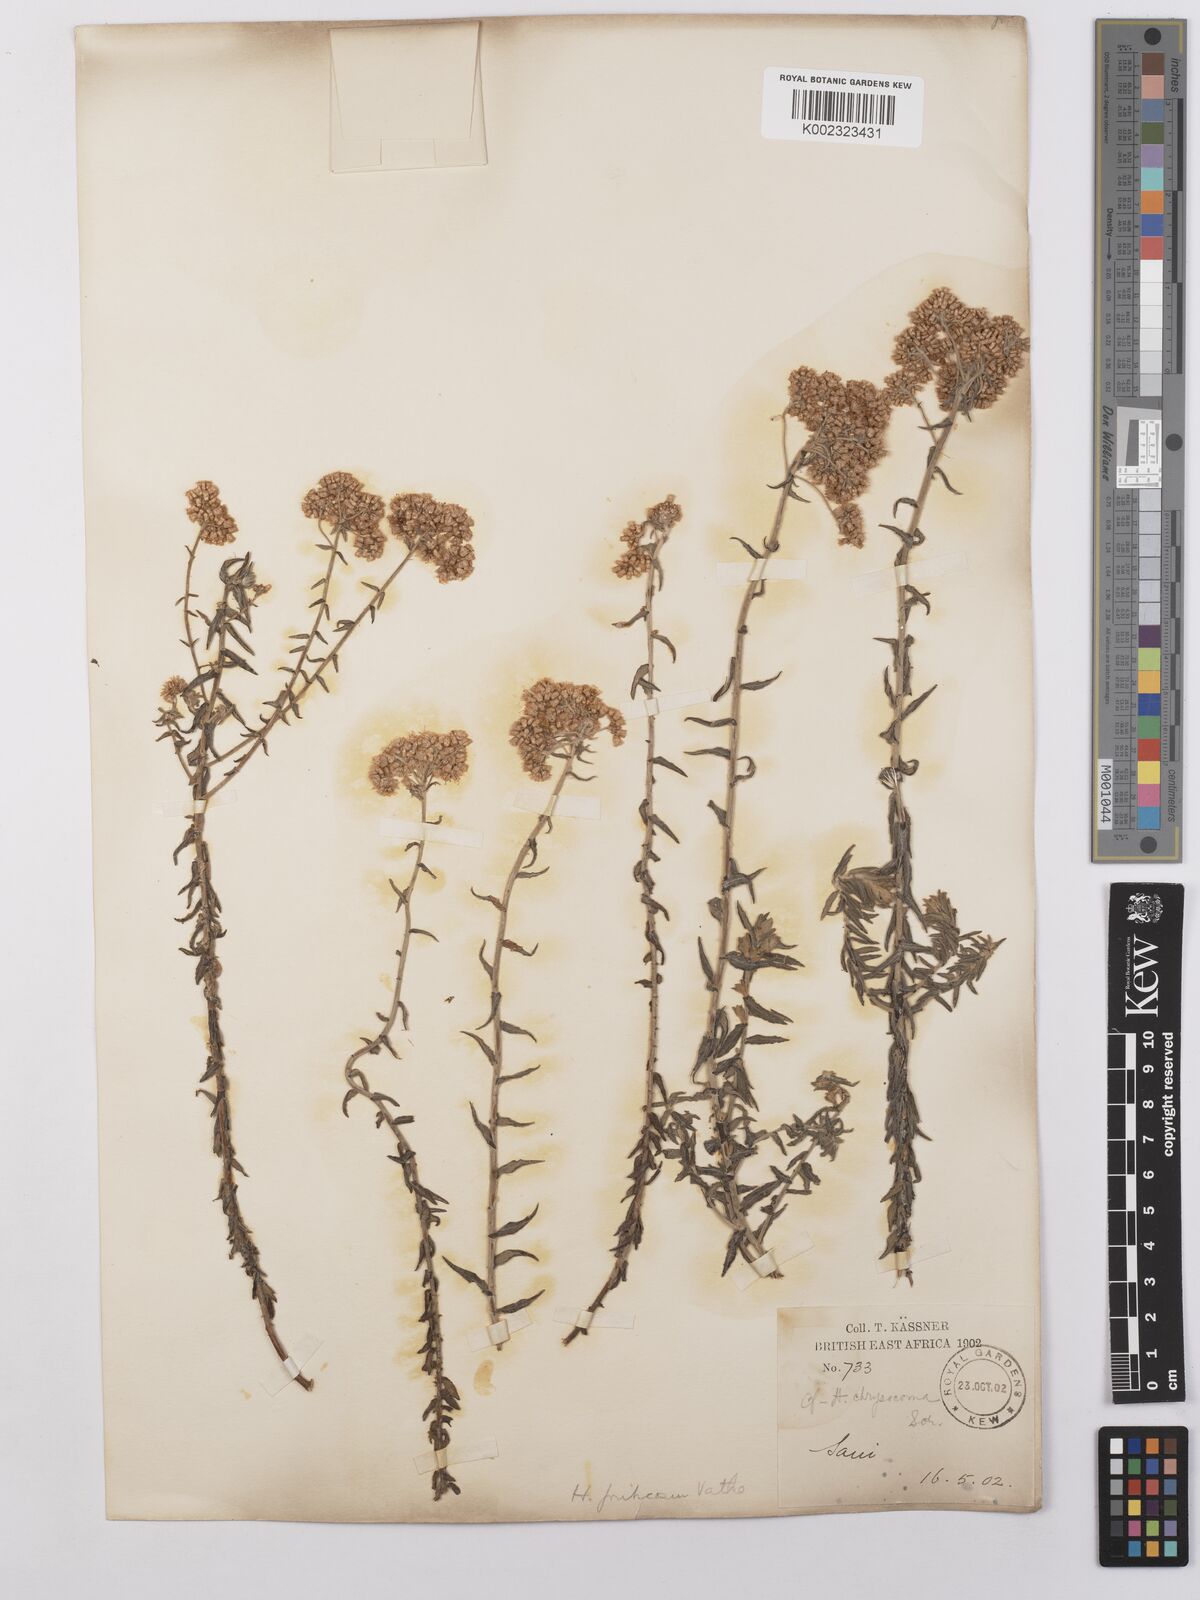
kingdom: Plantae
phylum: Tracheophyta
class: Magnoliopsida
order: Asterales
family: Asteraceae
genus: Helichrysum
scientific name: Helichrysum forskahlii
